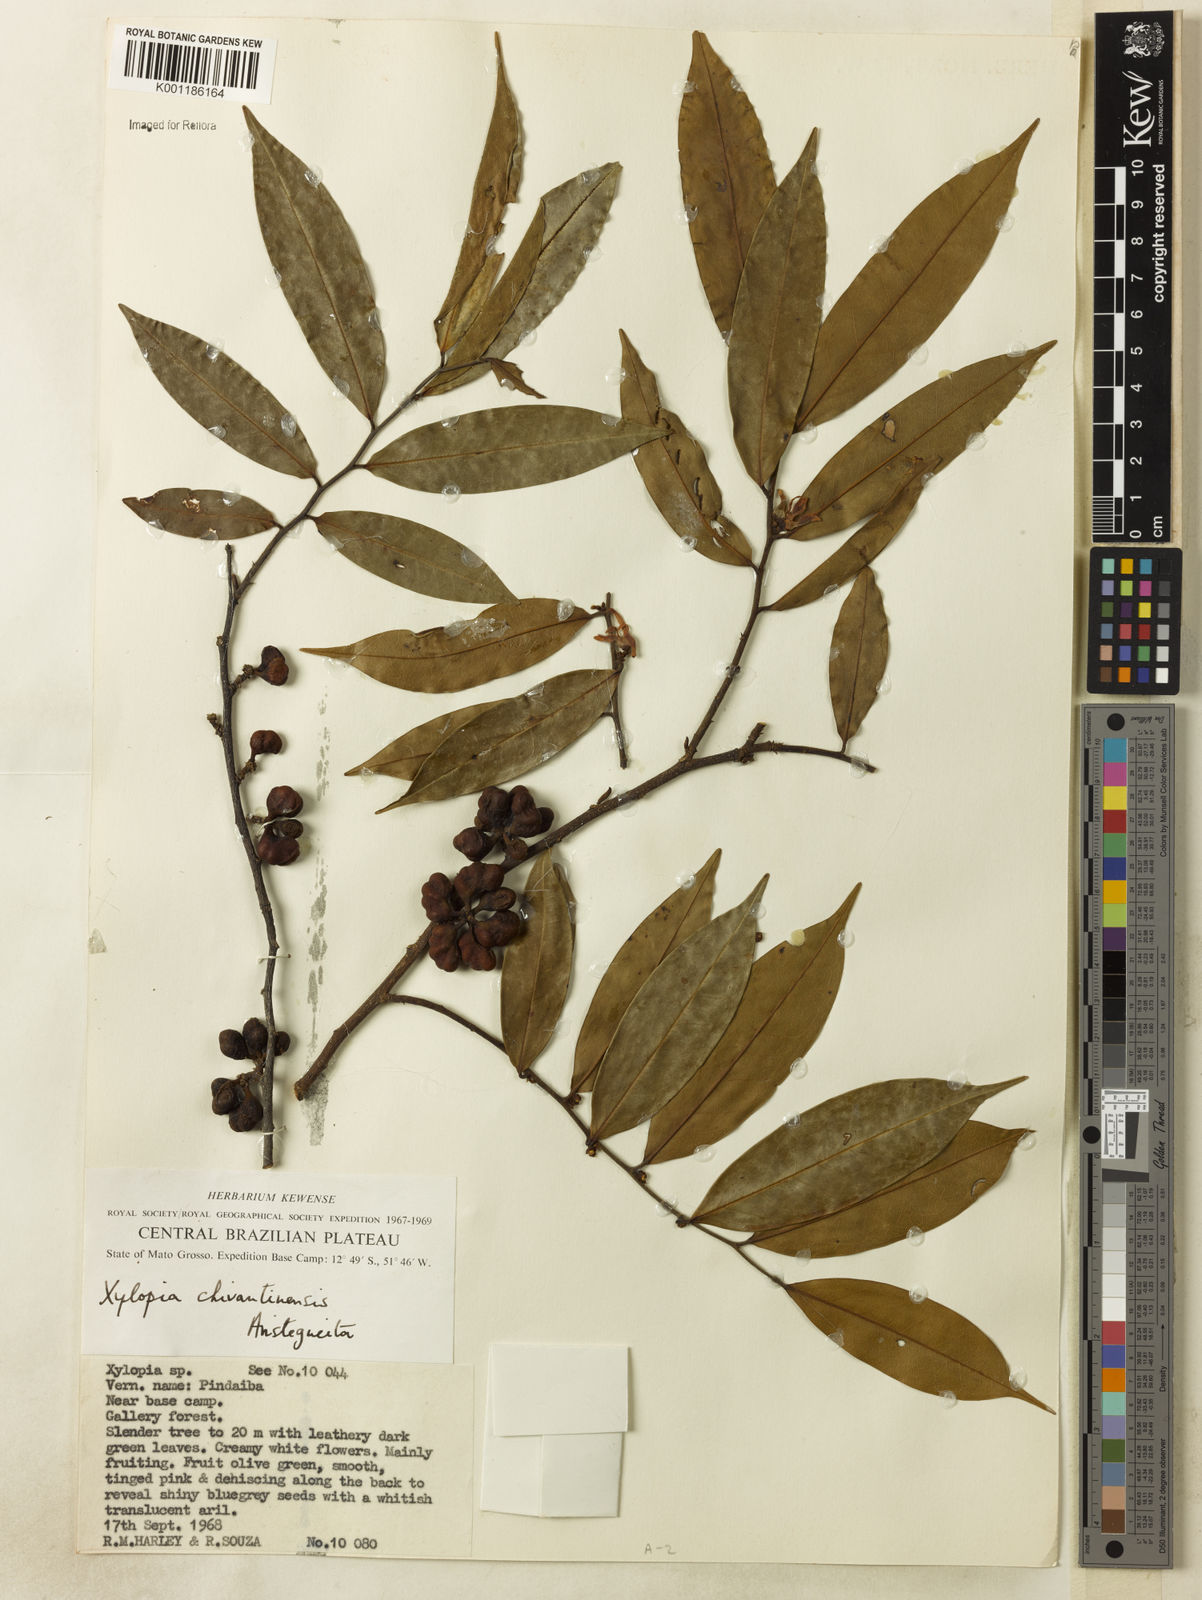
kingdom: Plantae
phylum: Tracheophyta
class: Magnoliopsida
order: Magnoliales
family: Annonaceae
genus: Xylopia
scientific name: Xylopia
